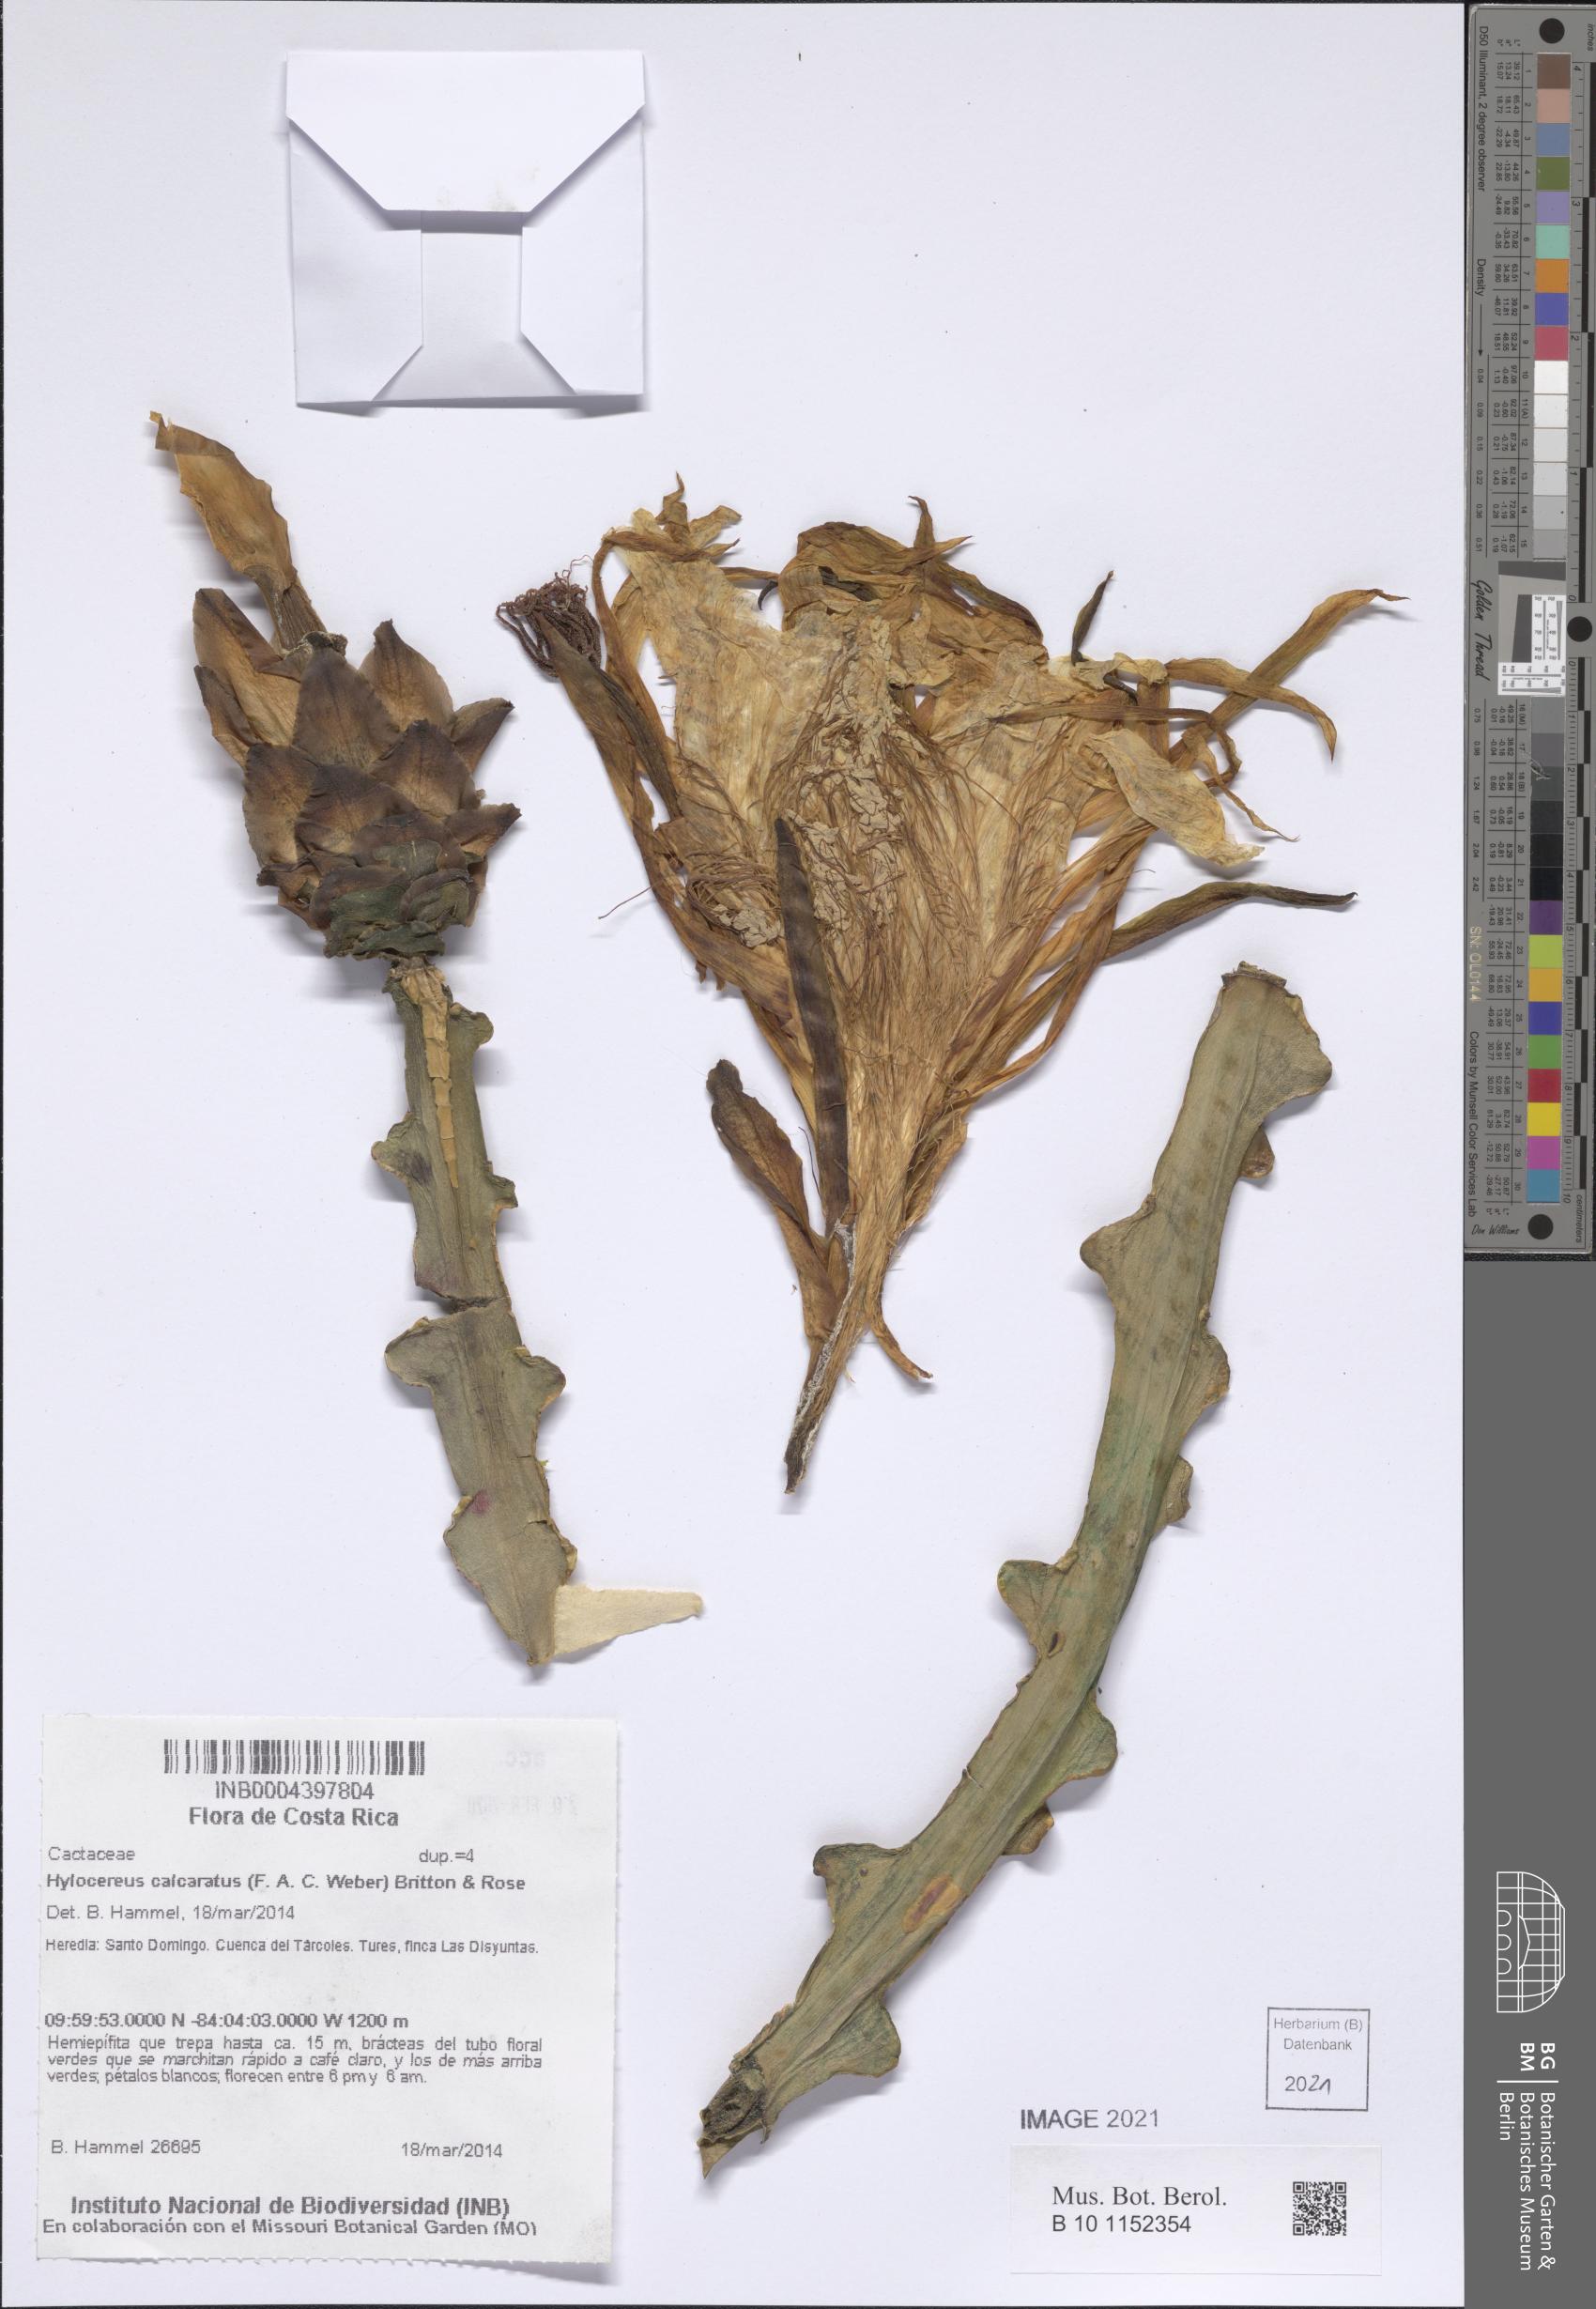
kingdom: Plantae
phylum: Tracheophyta
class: Magnoliopsida
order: Caryophyllales
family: Cactaceae
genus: Selenicereus
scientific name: Selenicereus calcaratus
